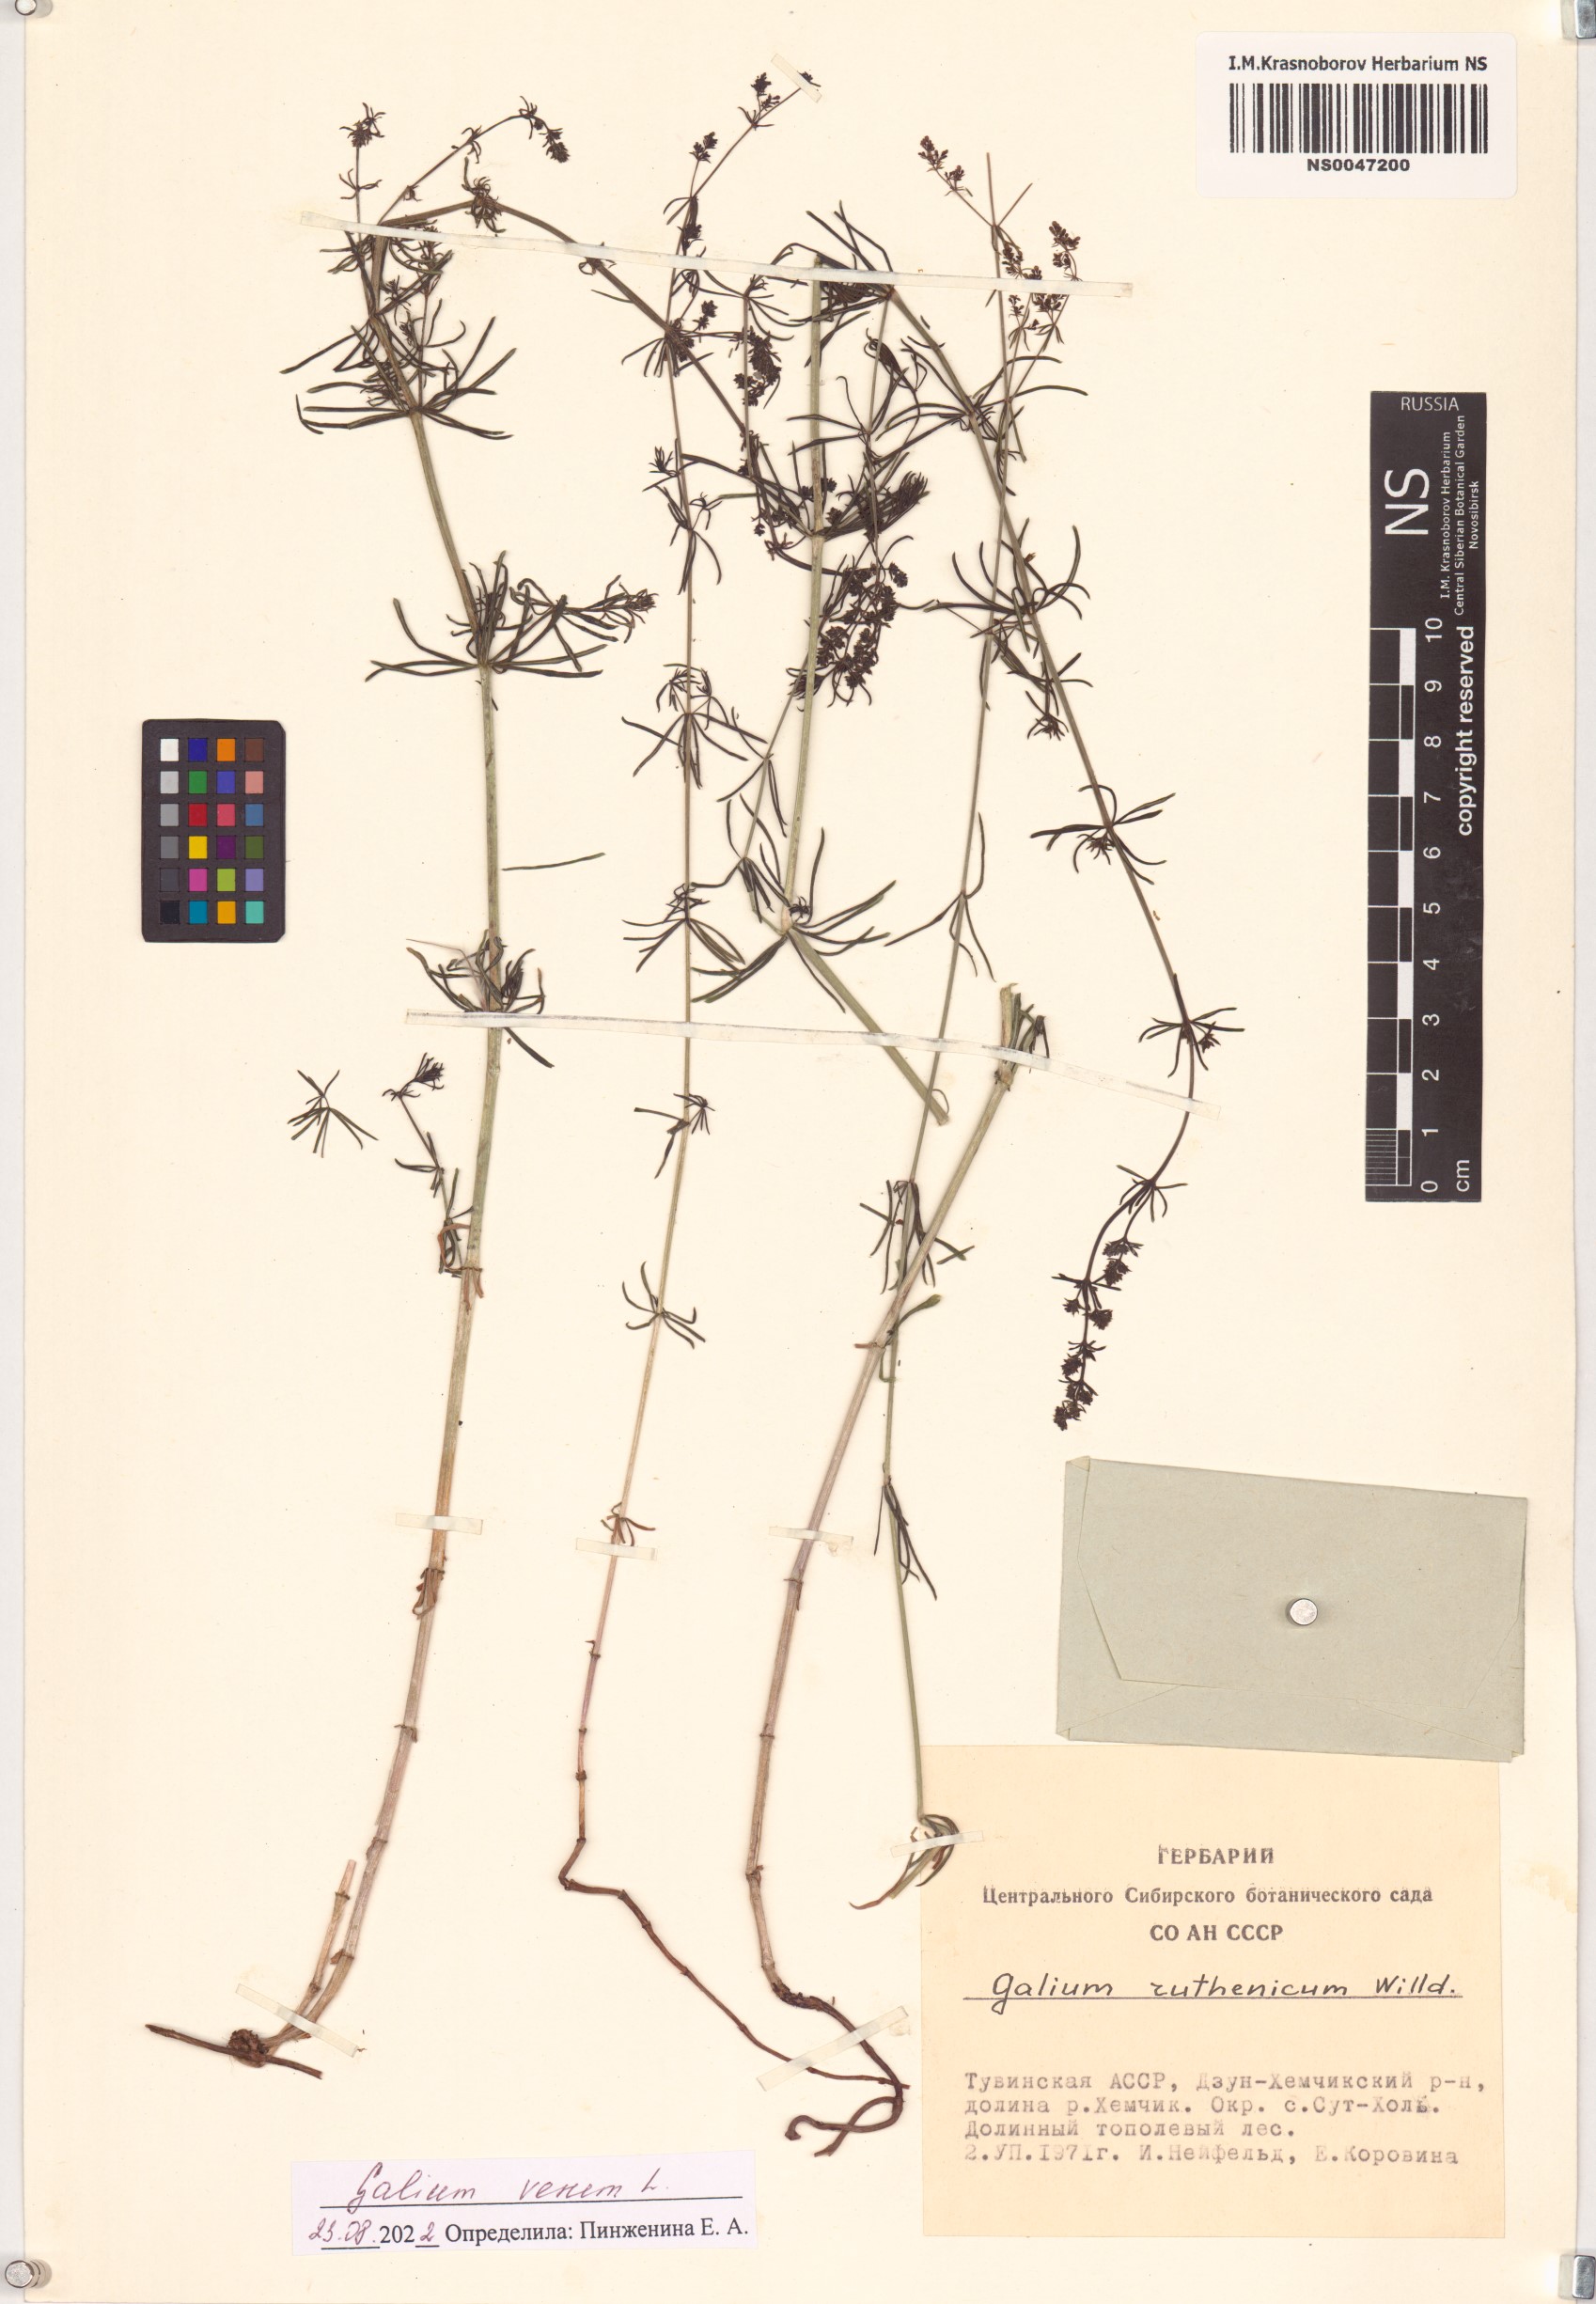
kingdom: Plantae
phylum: Tracheophyta
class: Magnoliopsida
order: Gentianales
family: Rubiaceae
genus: Galium
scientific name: Galium verum
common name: Lady's bedstraw
